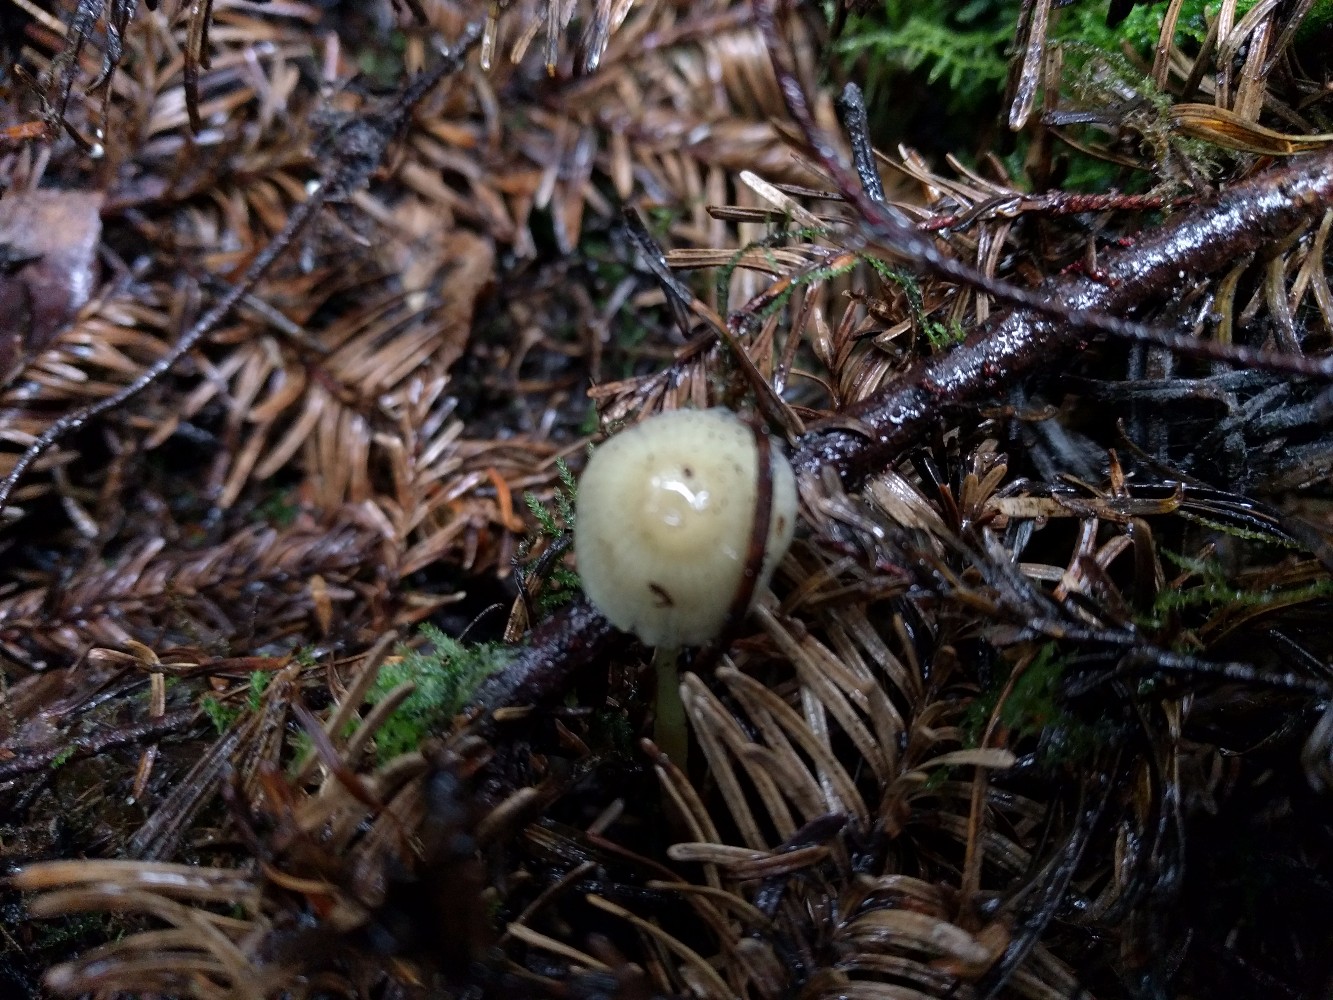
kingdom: Fungi
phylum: Basidiomycota
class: Agaricomycetes
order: Agaricales
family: Mycenaceae
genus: Mycena
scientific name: Mycena epipterygia
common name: gulstokket huesvamp
